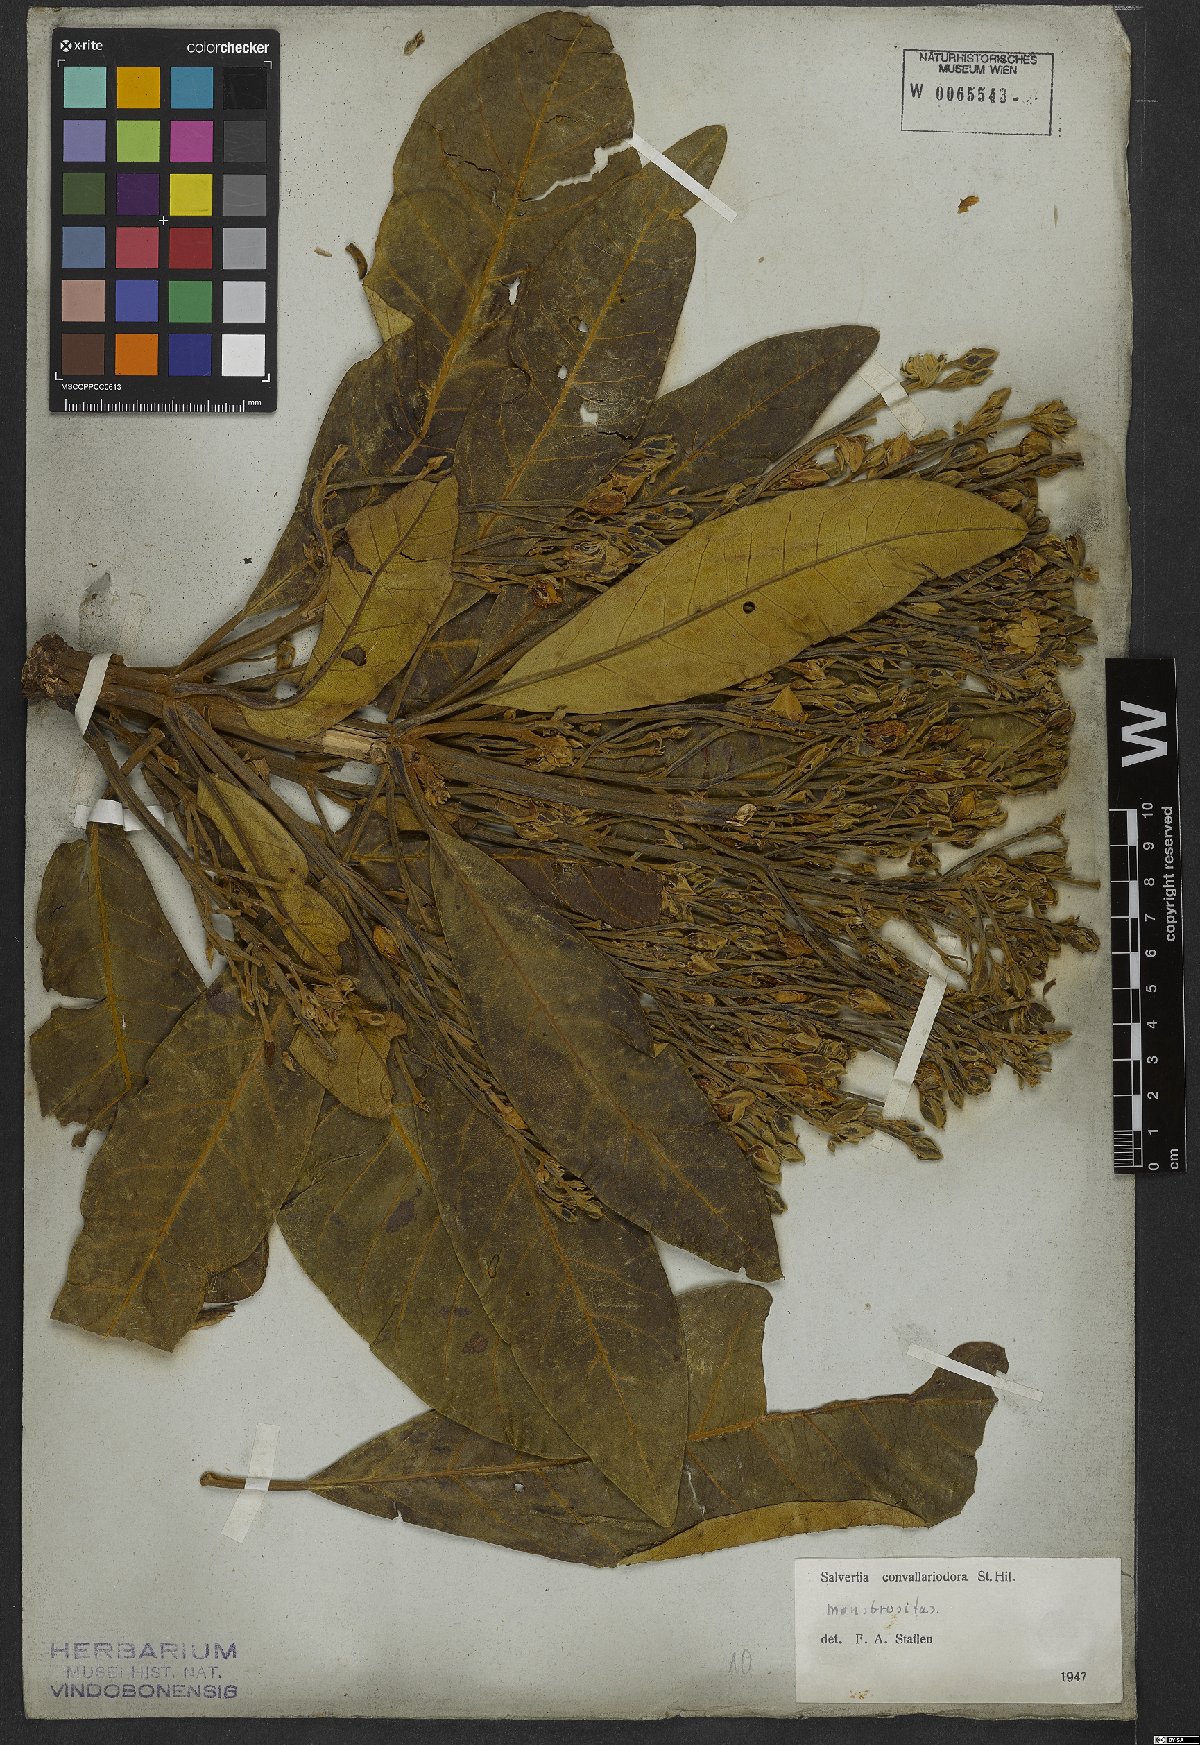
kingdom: Plantae
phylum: Tracheophyta
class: Magnoliopsida
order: Myrtales
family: Vochysiaceae
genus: Salvertia
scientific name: Salvertia convallariodora
